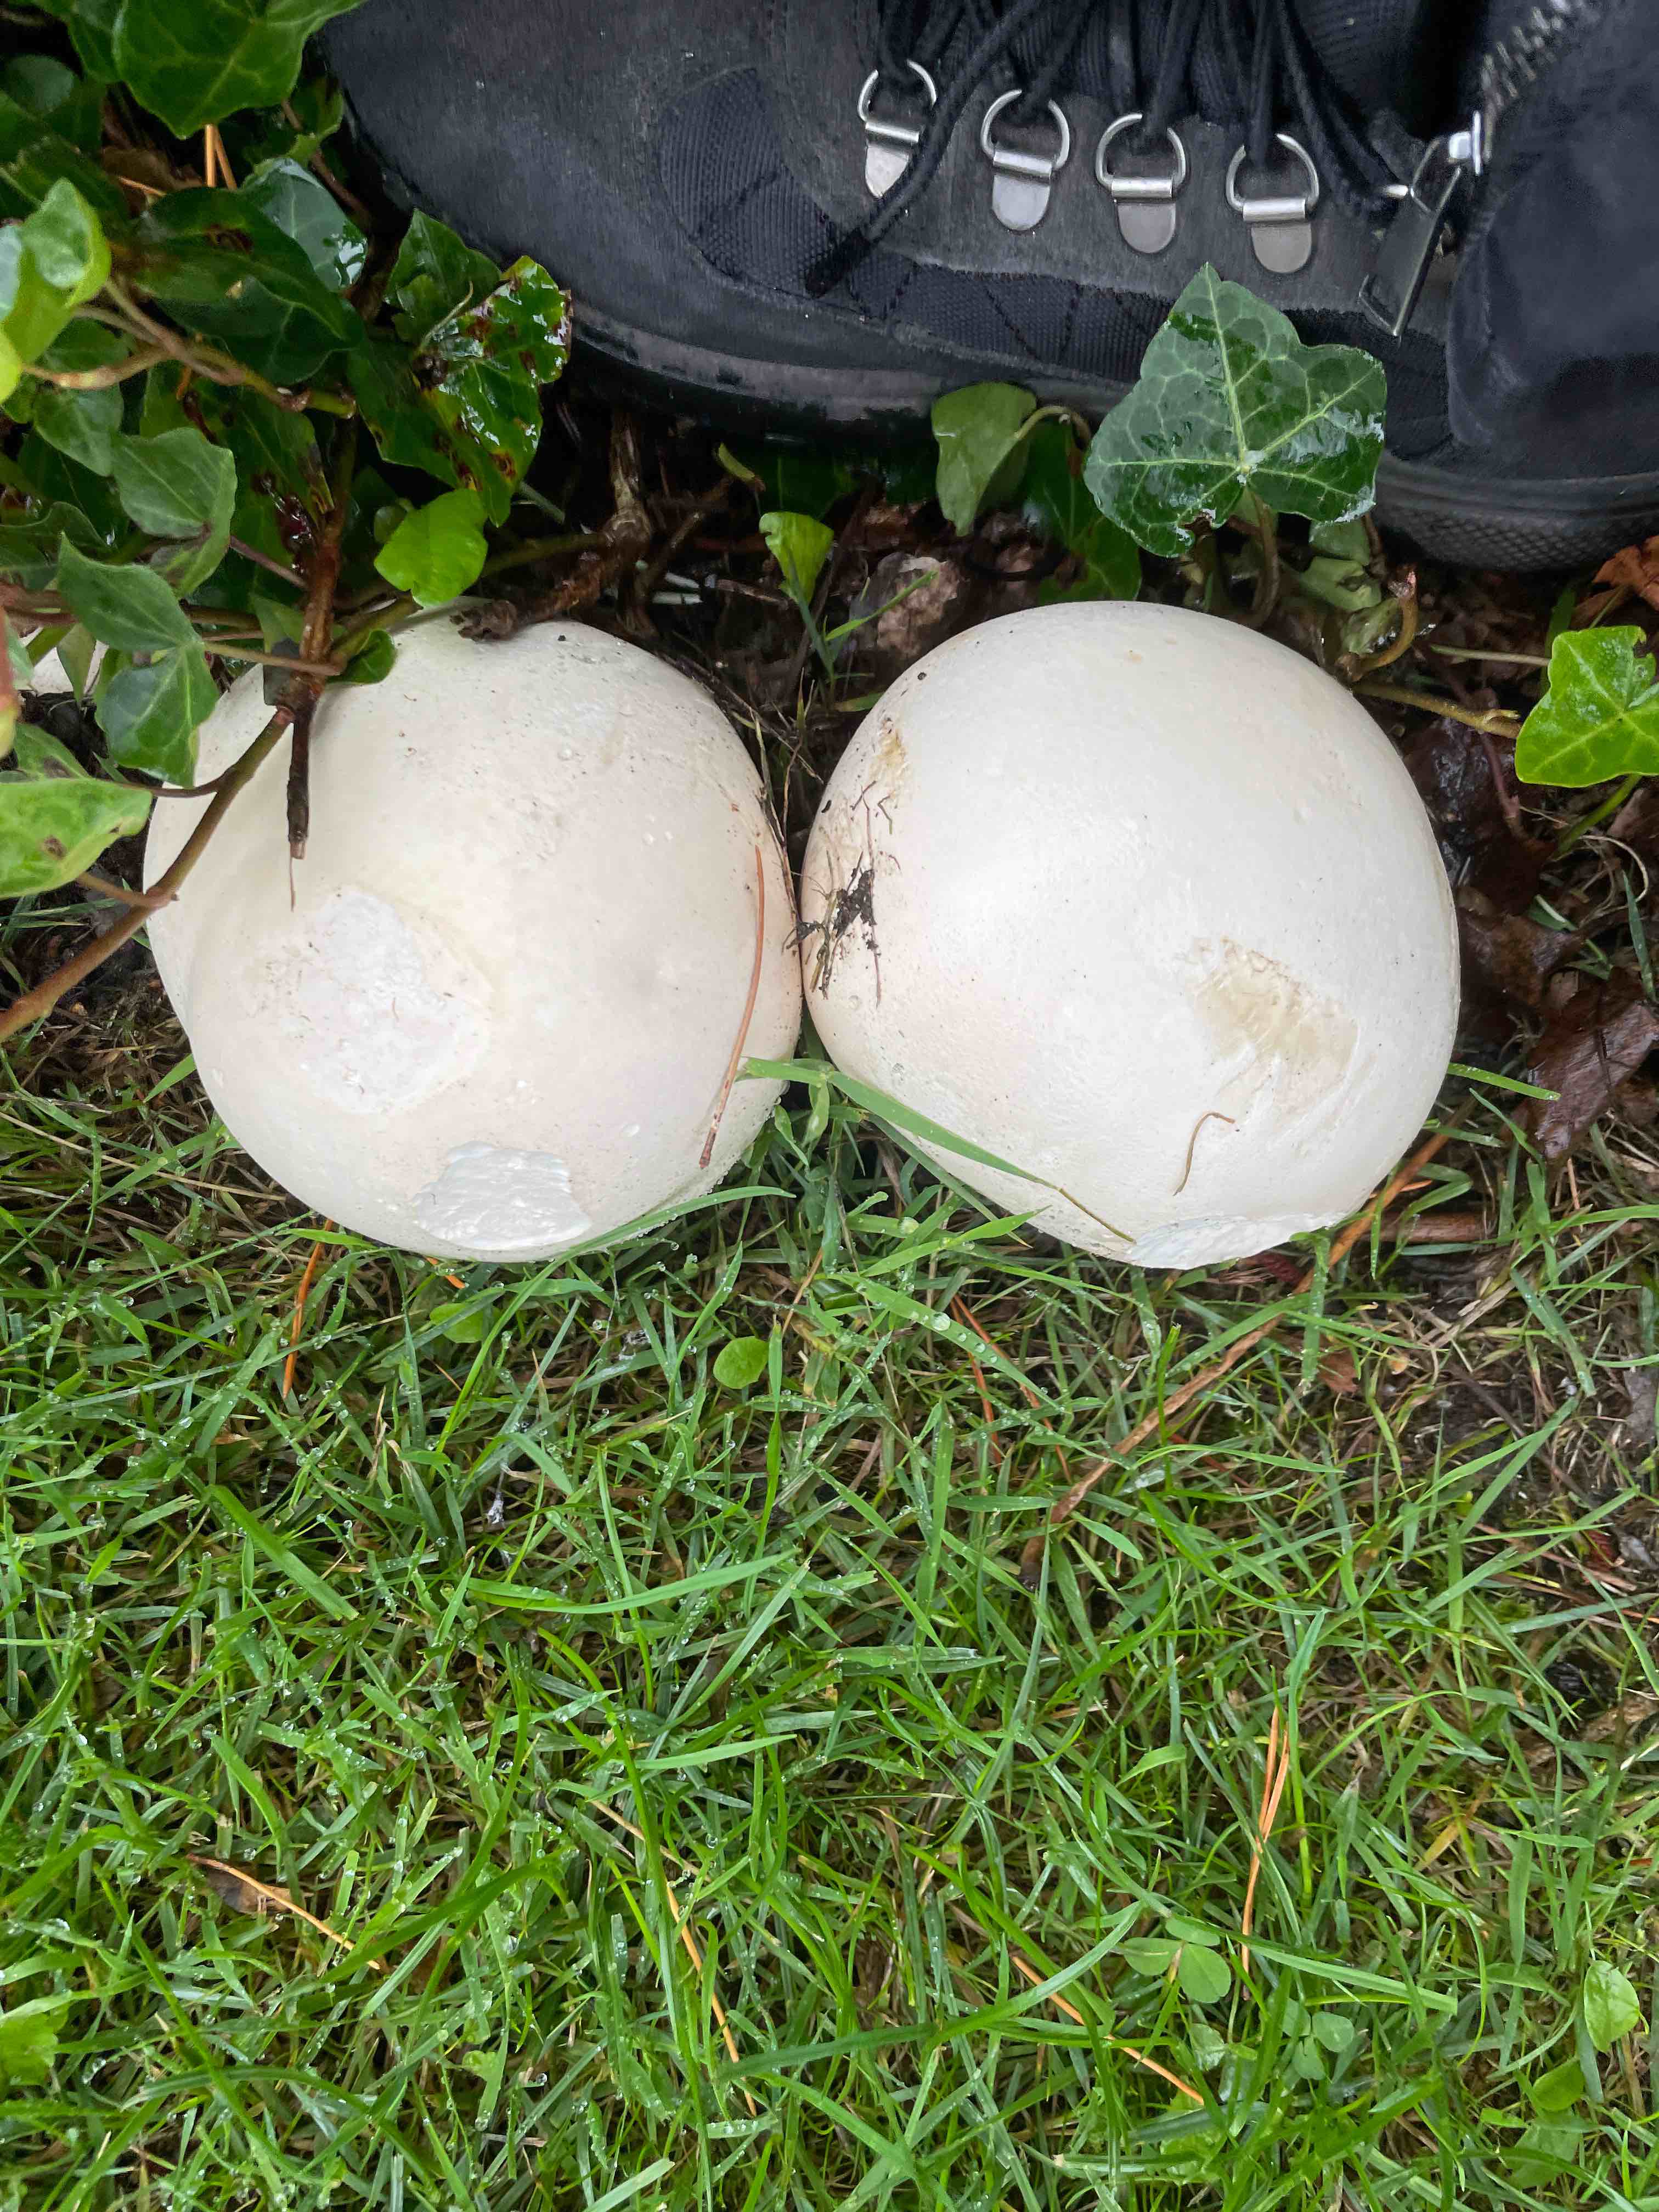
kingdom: Fungi
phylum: Basidiomycota
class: Agaricomycetes
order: Agaricales
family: Lycoperdaceae
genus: Calvatia
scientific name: Calvatia gigantea
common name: kæmpestøvbold
